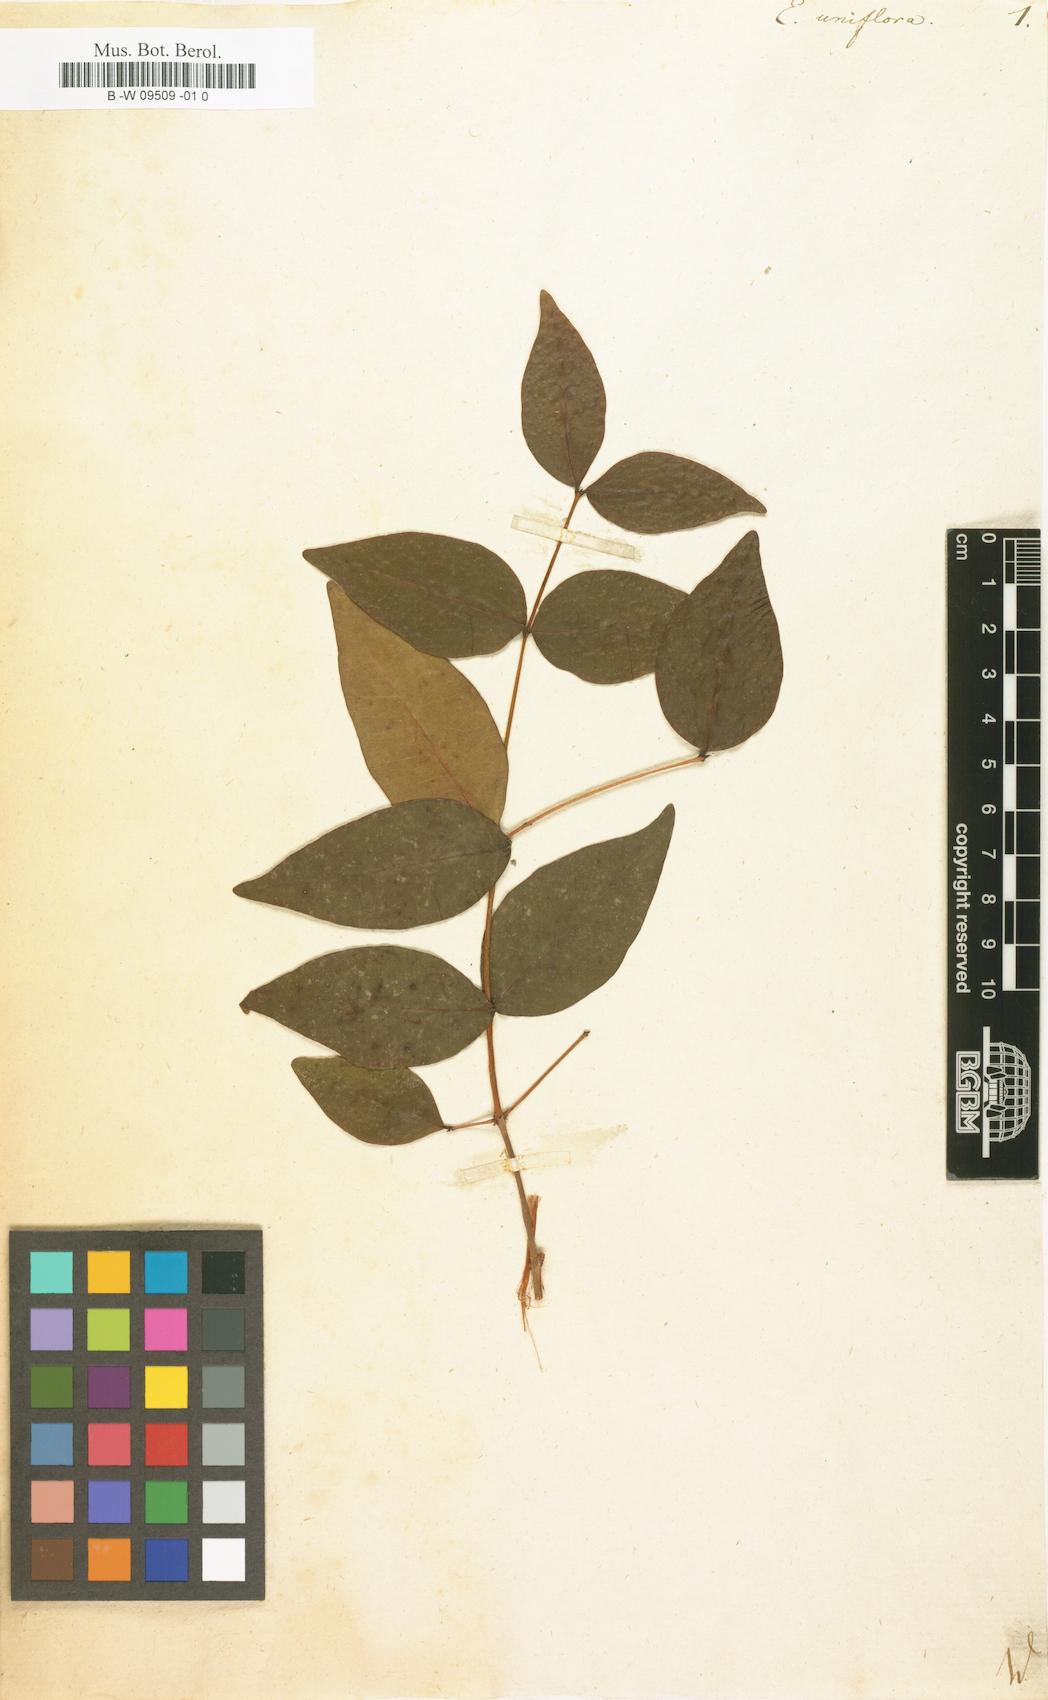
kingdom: Plantae
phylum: Tracheophyta
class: Magnoliopsida
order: Myrtales
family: Myrtaceae
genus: Eugenia
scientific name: Eugenia uniflora
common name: Surinam cherry
